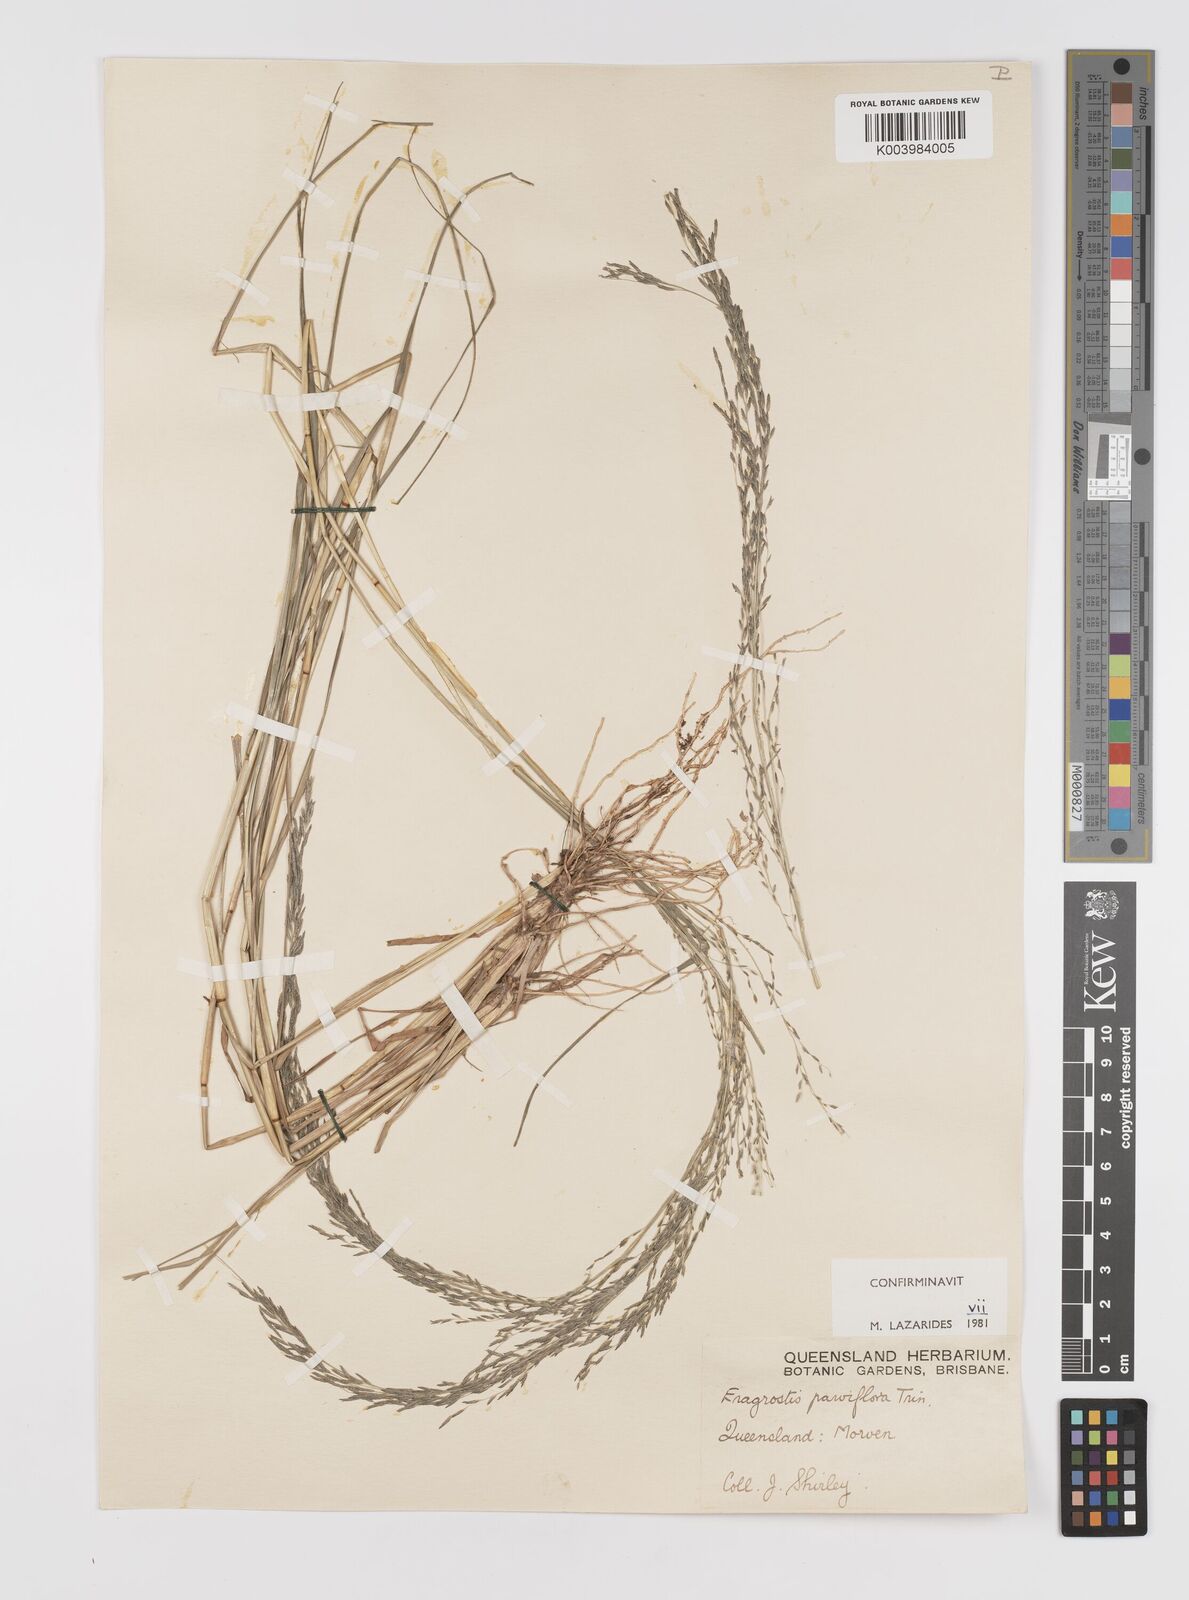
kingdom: Plantae
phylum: Tracheophyta
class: Liliopsida
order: Poales
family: Poaceae
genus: Eragrostis
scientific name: Eragrostis parviflora
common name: Weeping love-grass
